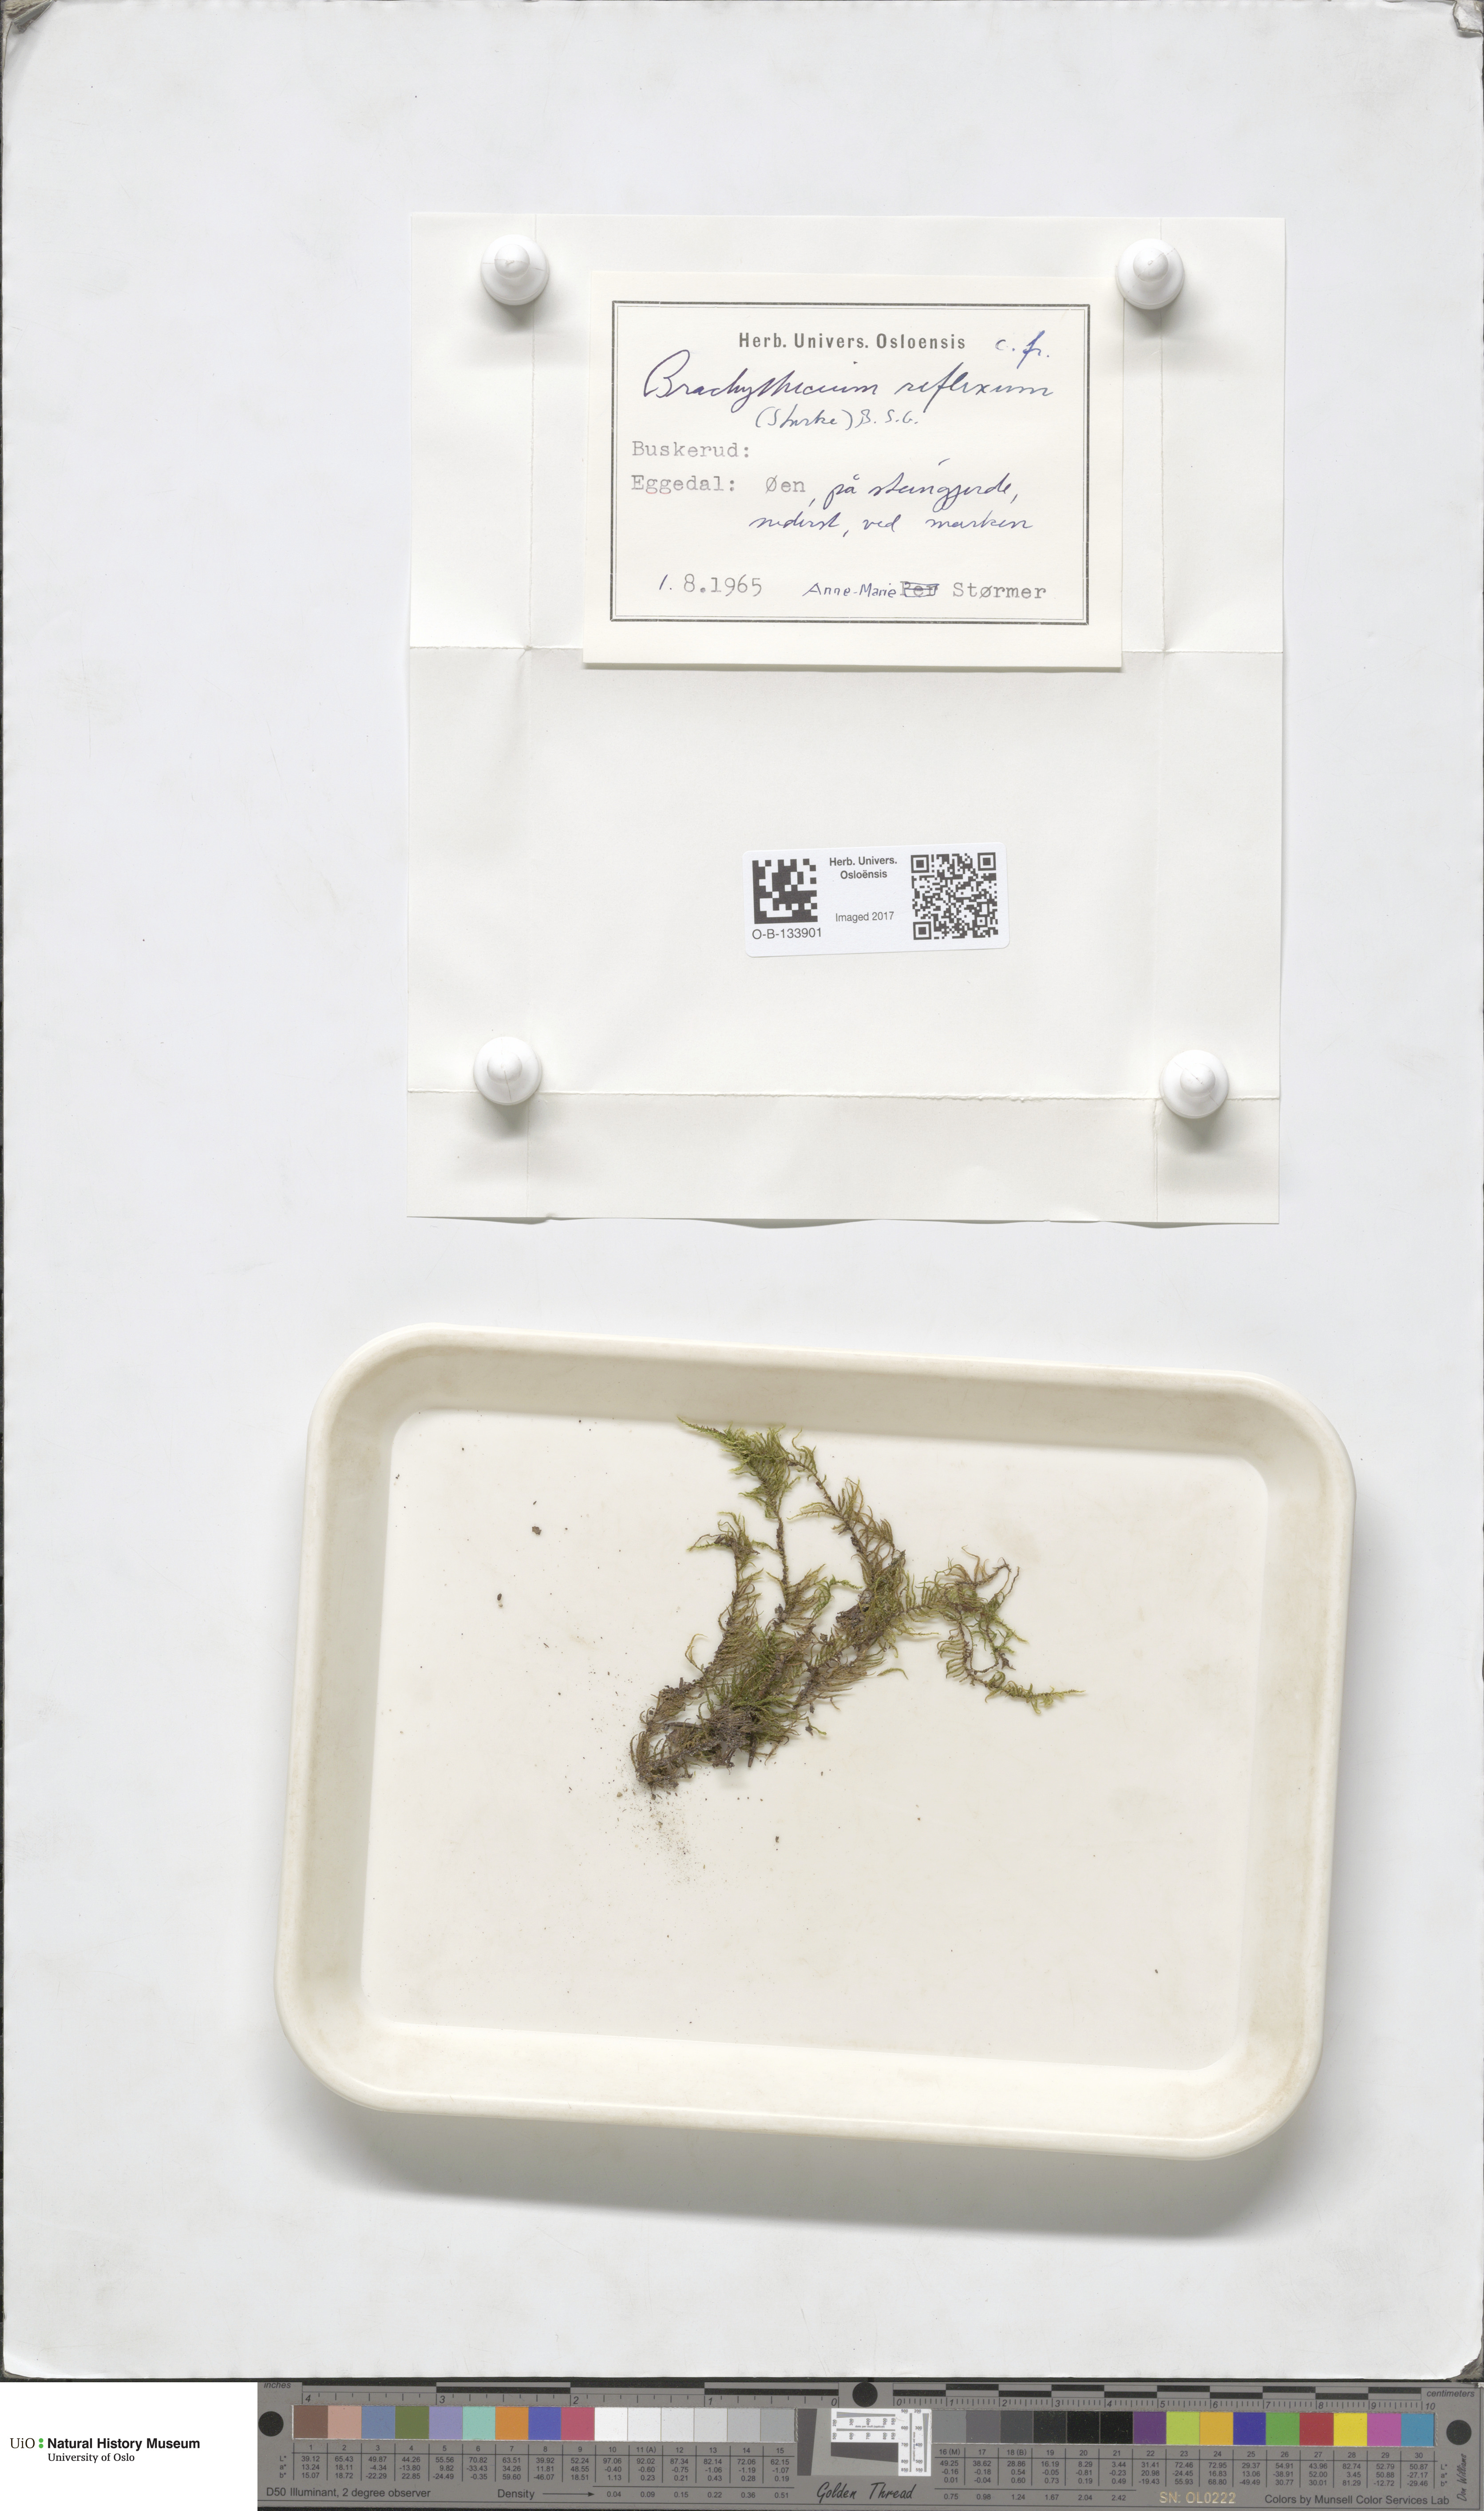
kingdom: Plantae
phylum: Bryophyta
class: Bryopsida
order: Hypnales
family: Brachytheciaceae
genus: Sciuro-hypnum
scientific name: Sciuro-hypnum reflexum
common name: Reflexed feather-moss
